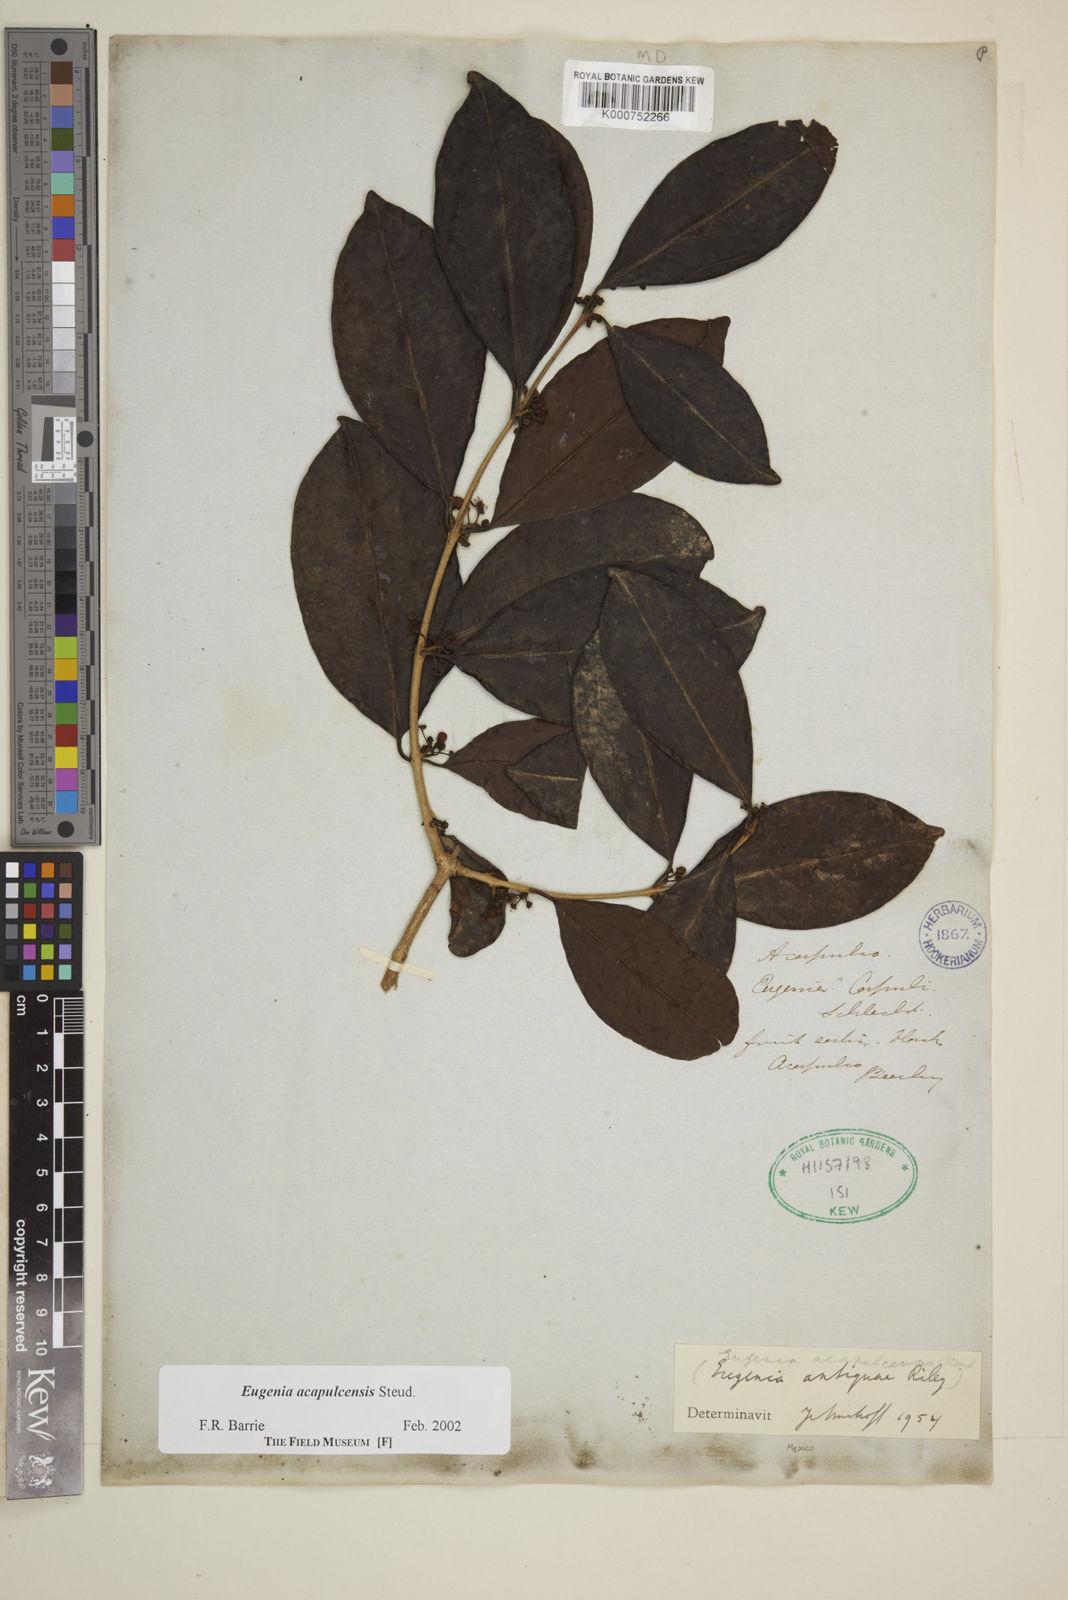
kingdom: Plantae
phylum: Tracheophyta
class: Magnoliopsida
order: Myrtales
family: Myrtaceae
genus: Eugenia
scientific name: Eugenia acapulcensis
